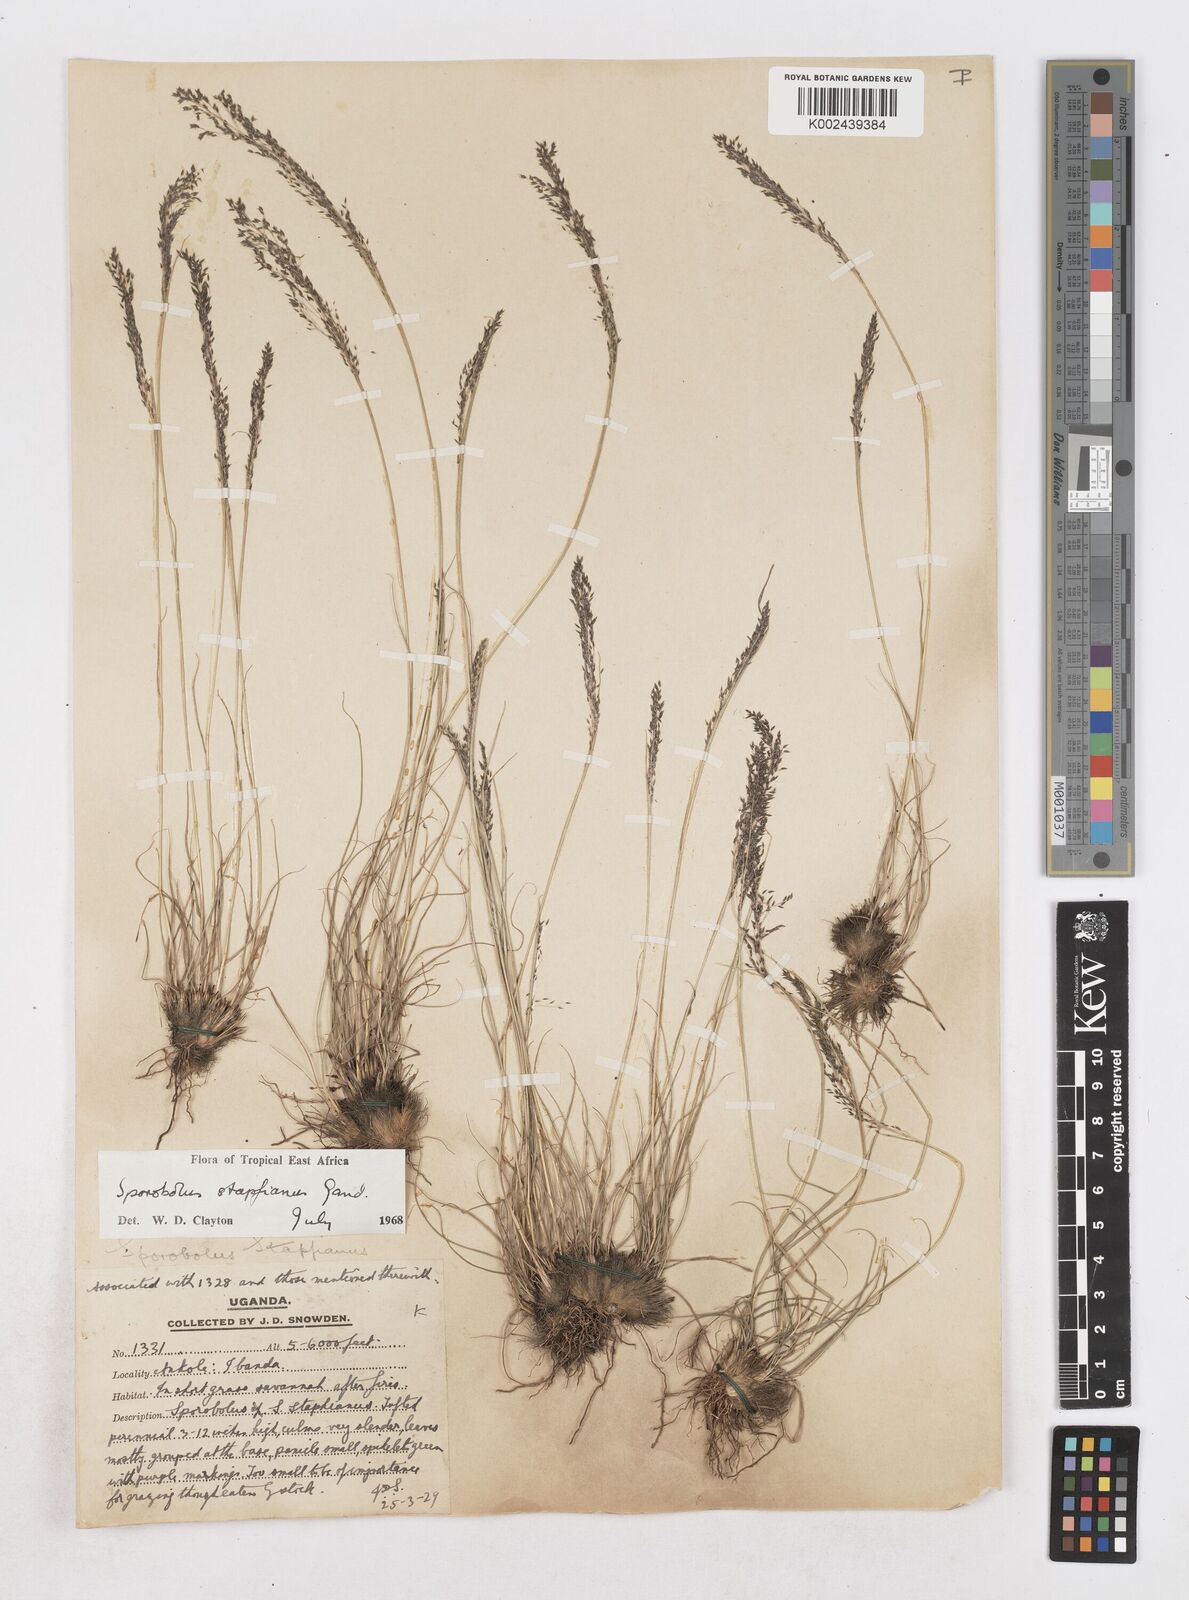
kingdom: Plantae
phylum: Tracheophyta
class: Liliopsida
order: Poales
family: Poaceae
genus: Sporobolus
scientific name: Sporobolus stapfianus
